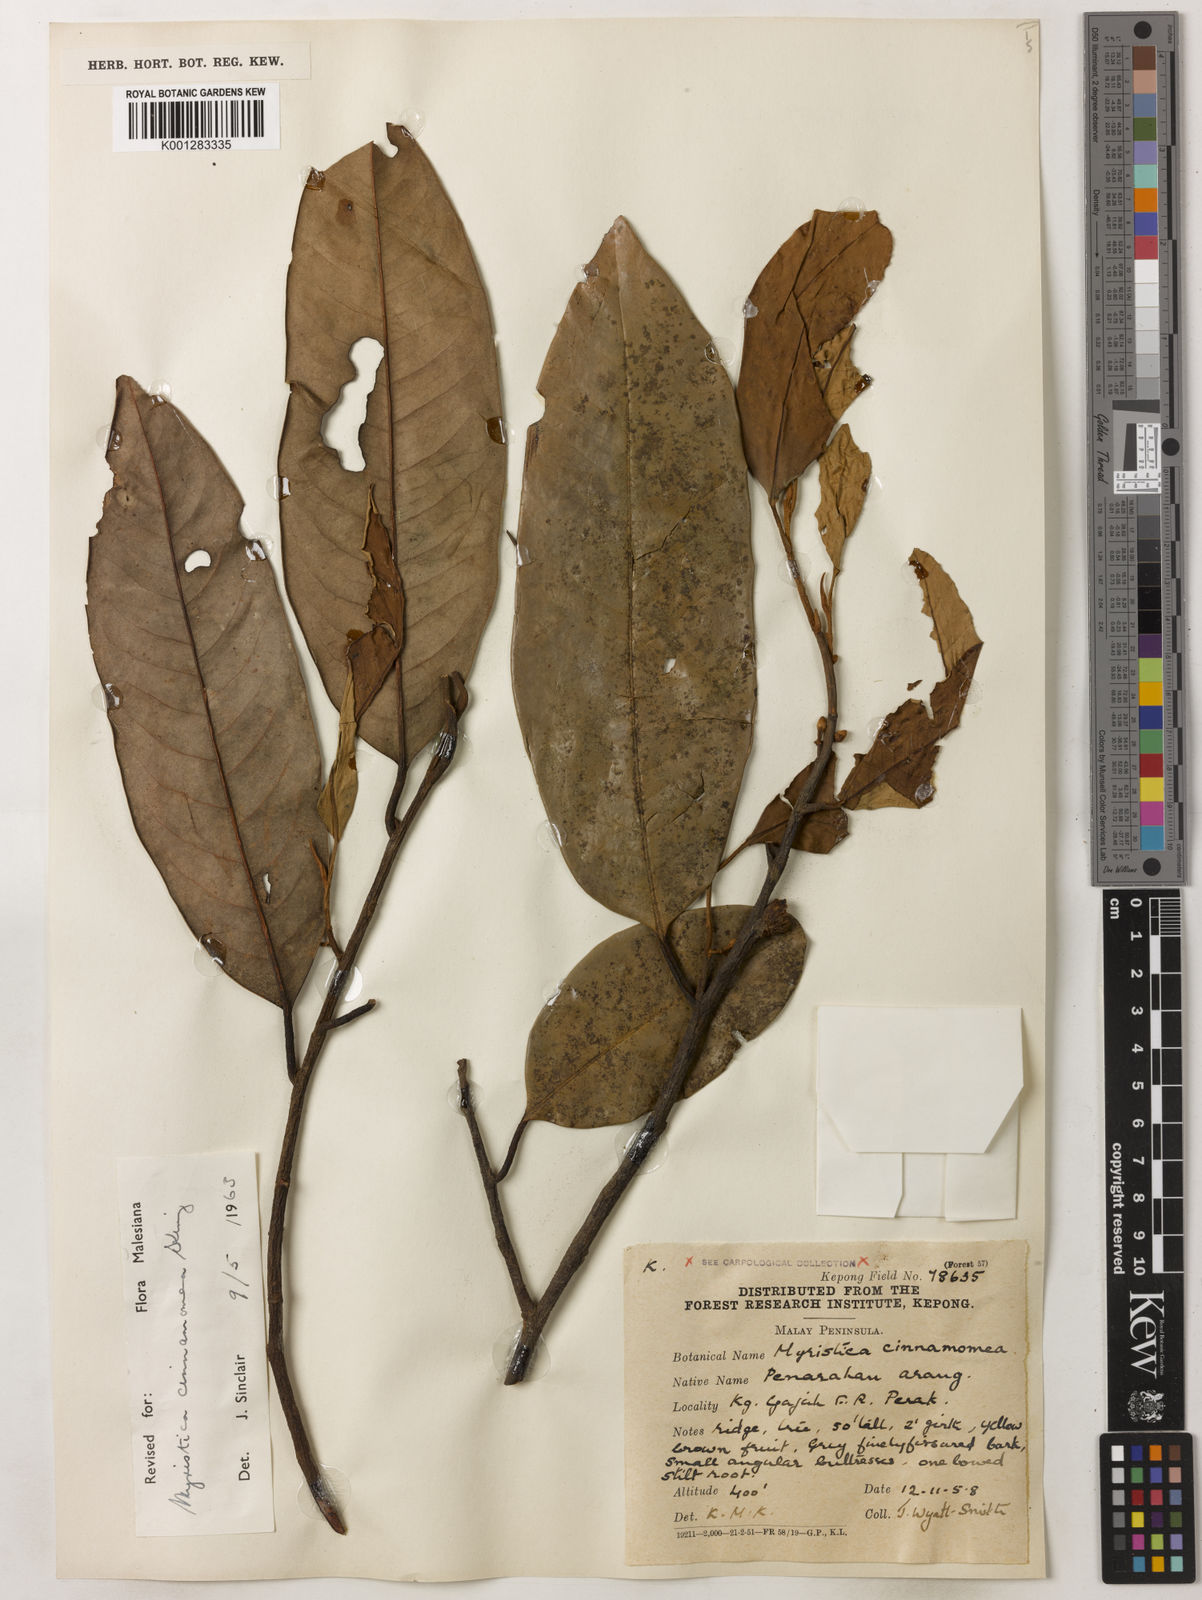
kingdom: Plantae
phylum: Tracheophyta
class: Magnoliopsida
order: Magnoliales
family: Myristicaceae
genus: Myristica
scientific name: Myristica cinnamomea
